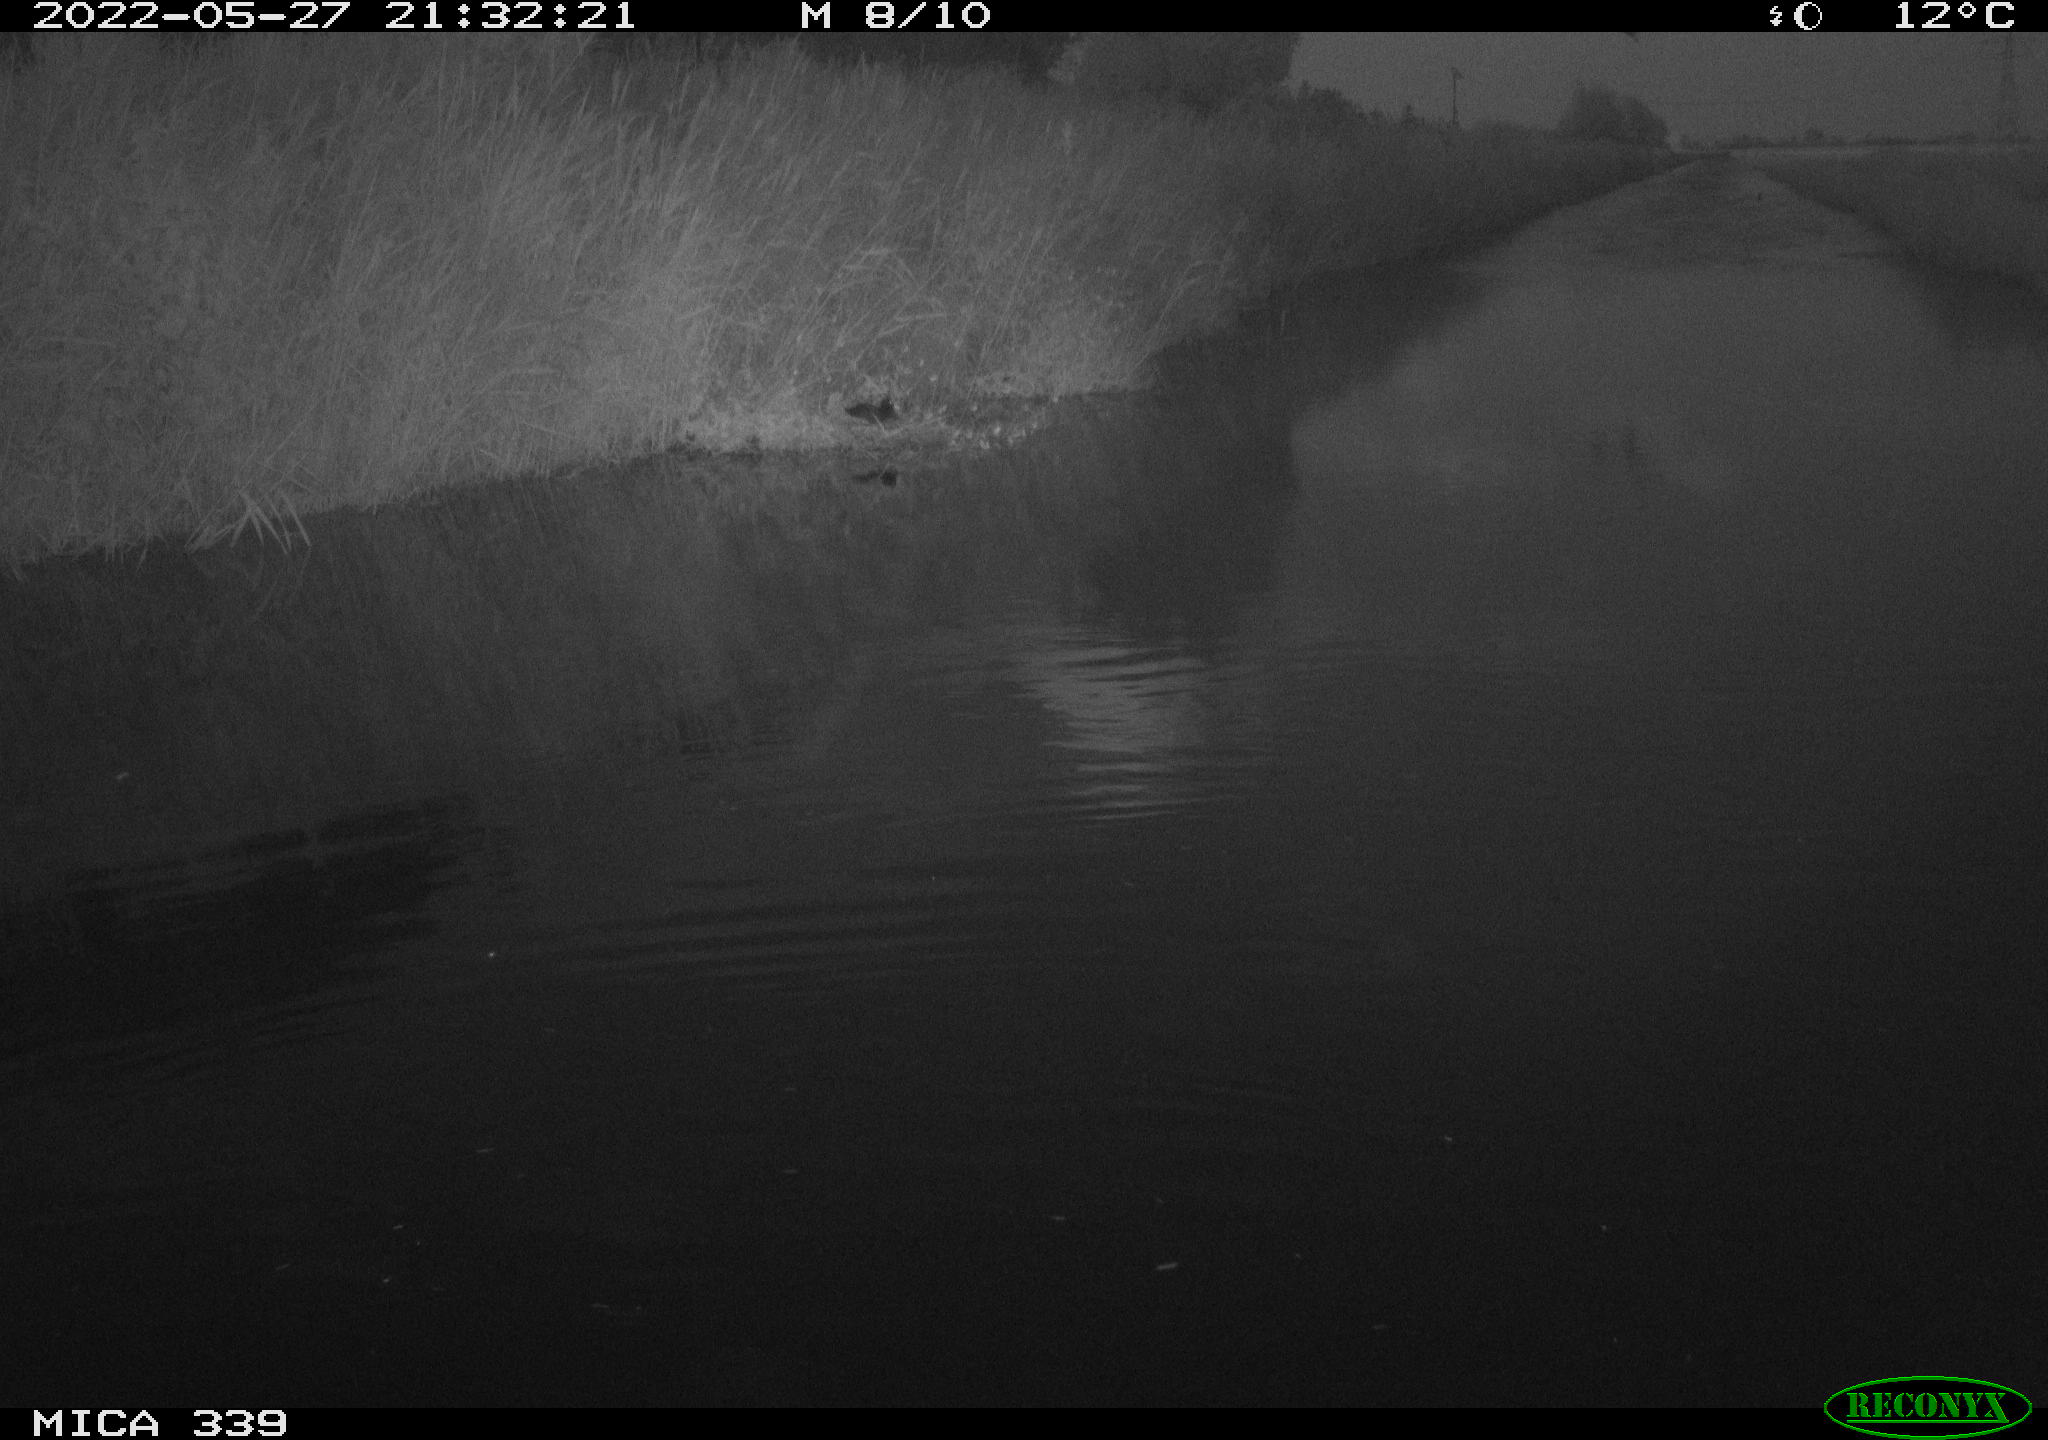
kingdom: Animalia
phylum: Chordata
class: Aves
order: Pelecaniformes
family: Ardeidae
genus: Ardea
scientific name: Ardea cinerea
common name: Grey heron
